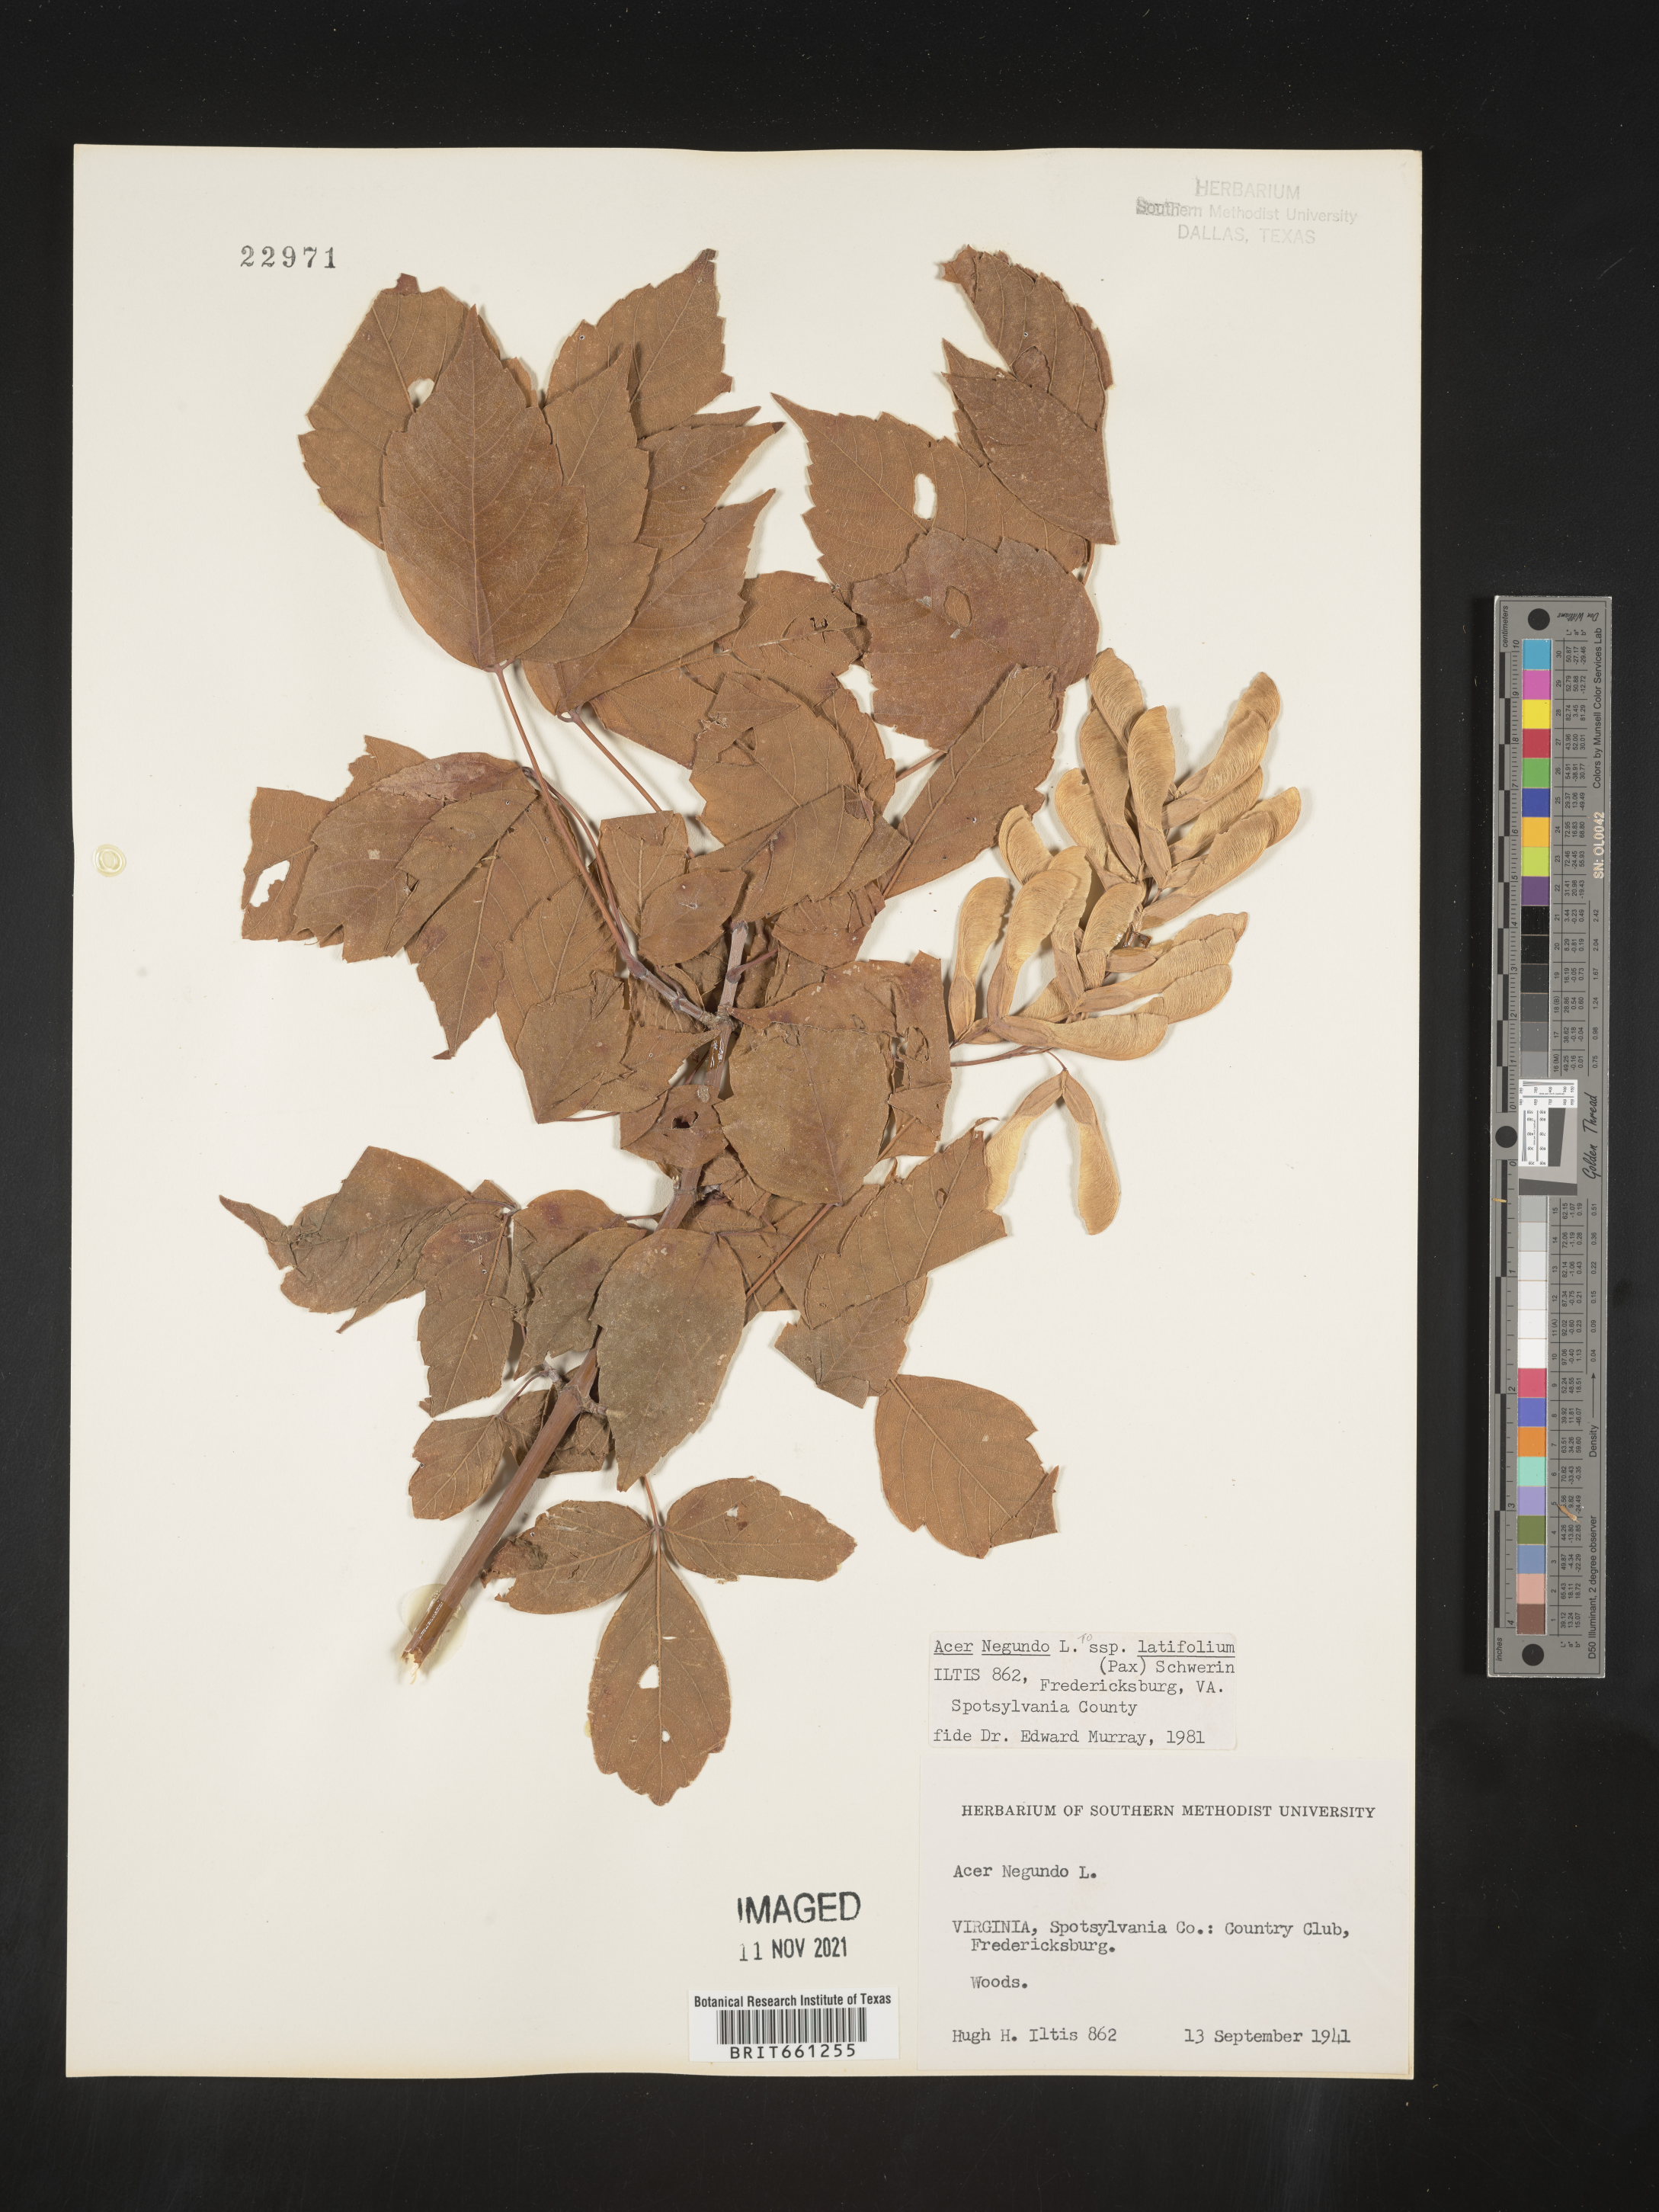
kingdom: Plantae
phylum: Tracheophyta
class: Magnoliopsida
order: Sapindales
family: Sapindaceae
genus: Acer
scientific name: Acer negundo
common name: Ashleaf maple
